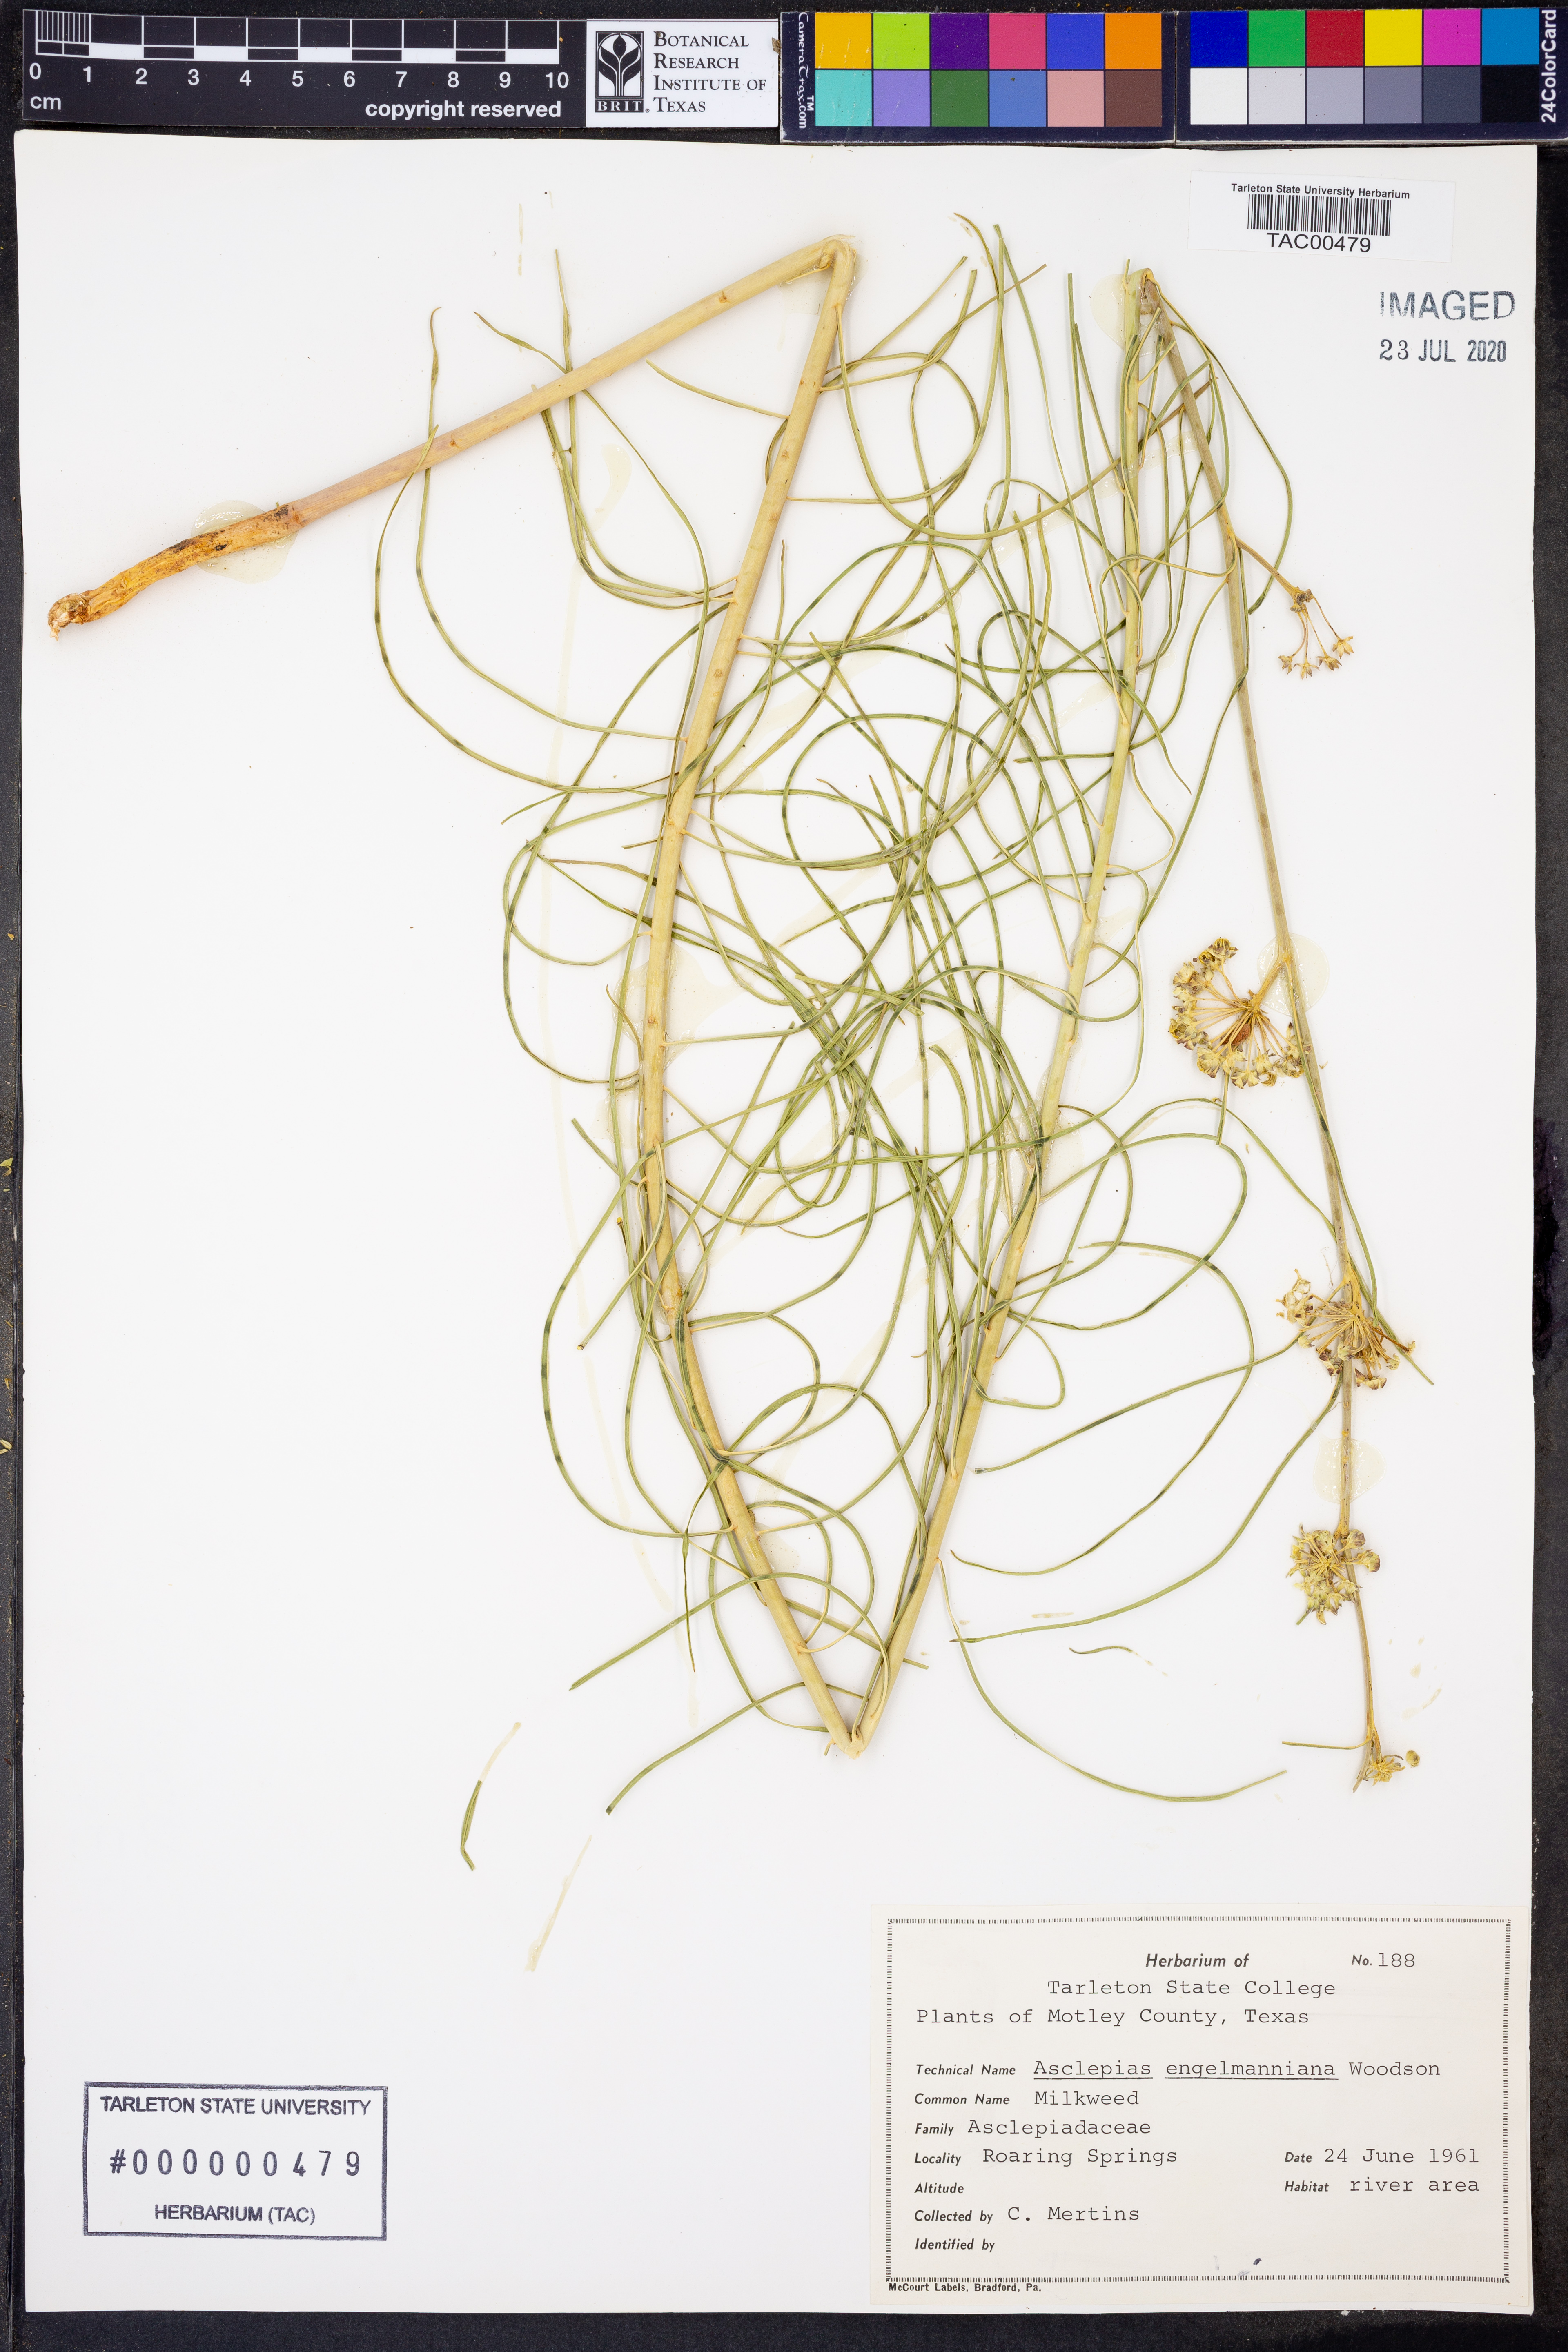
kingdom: Plantae
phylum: Tracheophyta
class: Magnoliopsida
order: Gentianales
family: Apocynaceae
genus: Asclepias
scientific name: Asclepias engelmanniana
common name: Engelmann's milkweed
